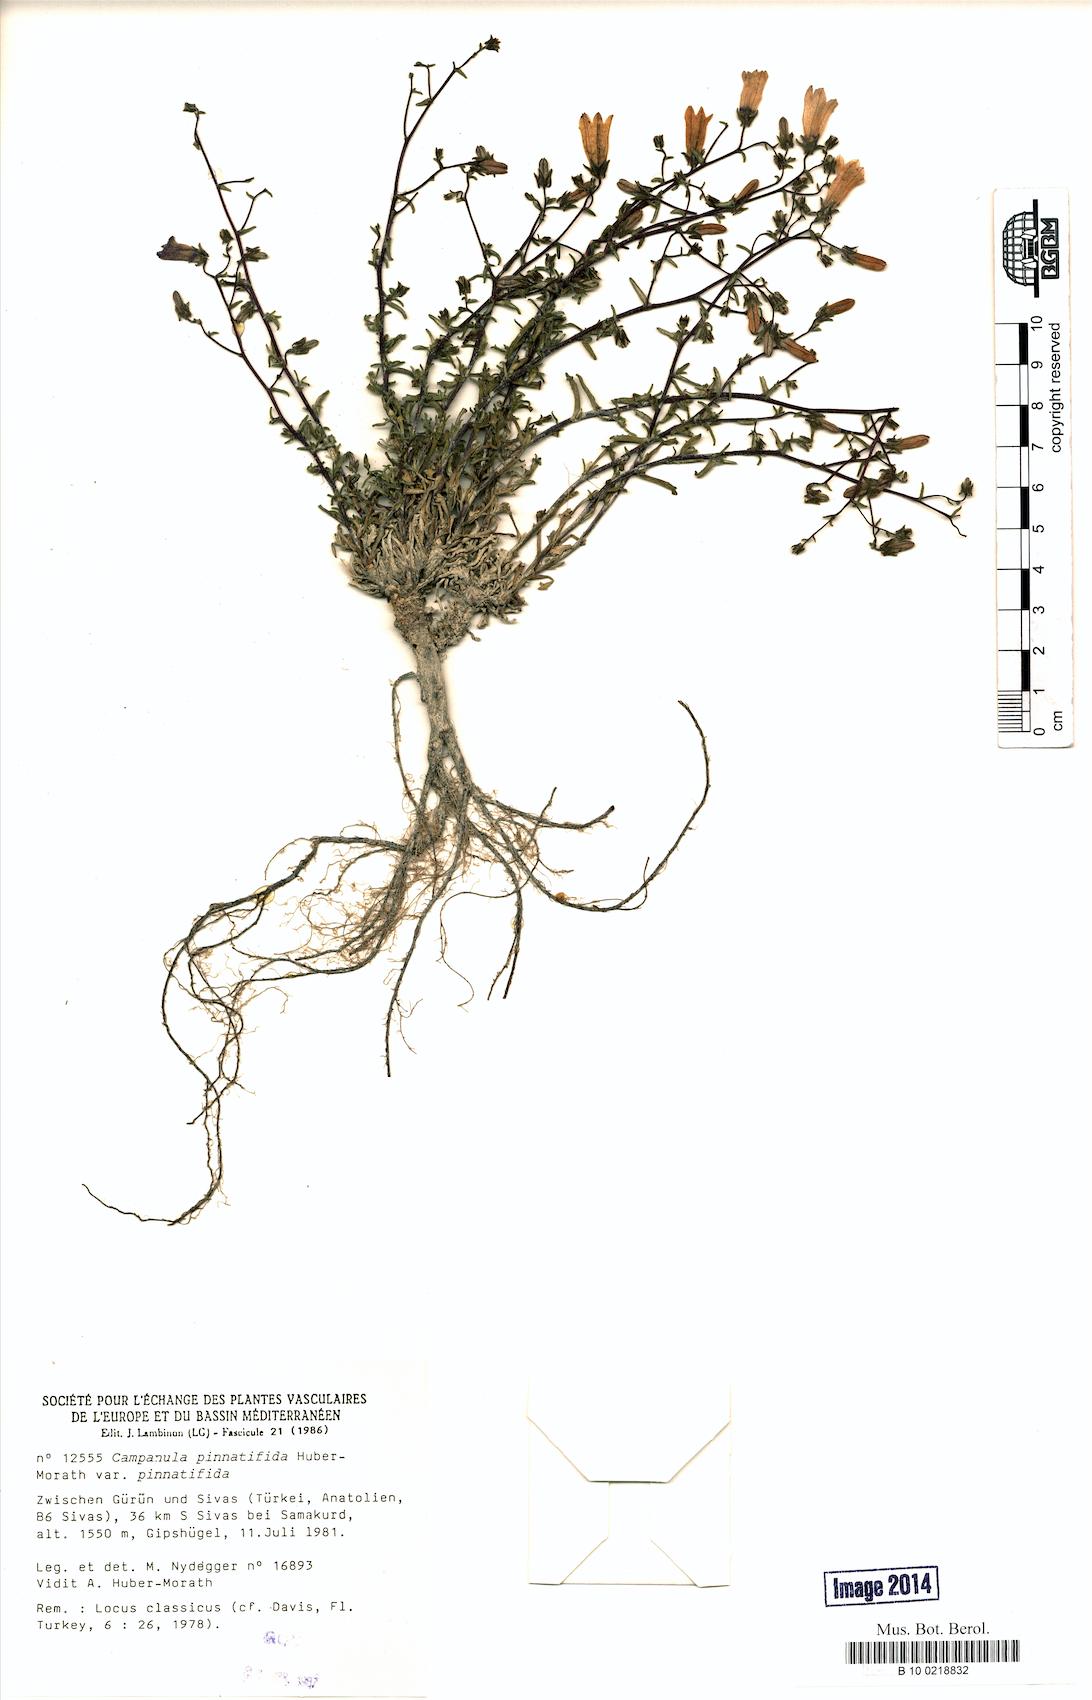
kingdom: Plantae
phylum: Tracheophyta
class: Magnoliopsida
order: Asterales
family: Campanulaceae
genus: Campanula
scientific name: Campanula pinnatifida
